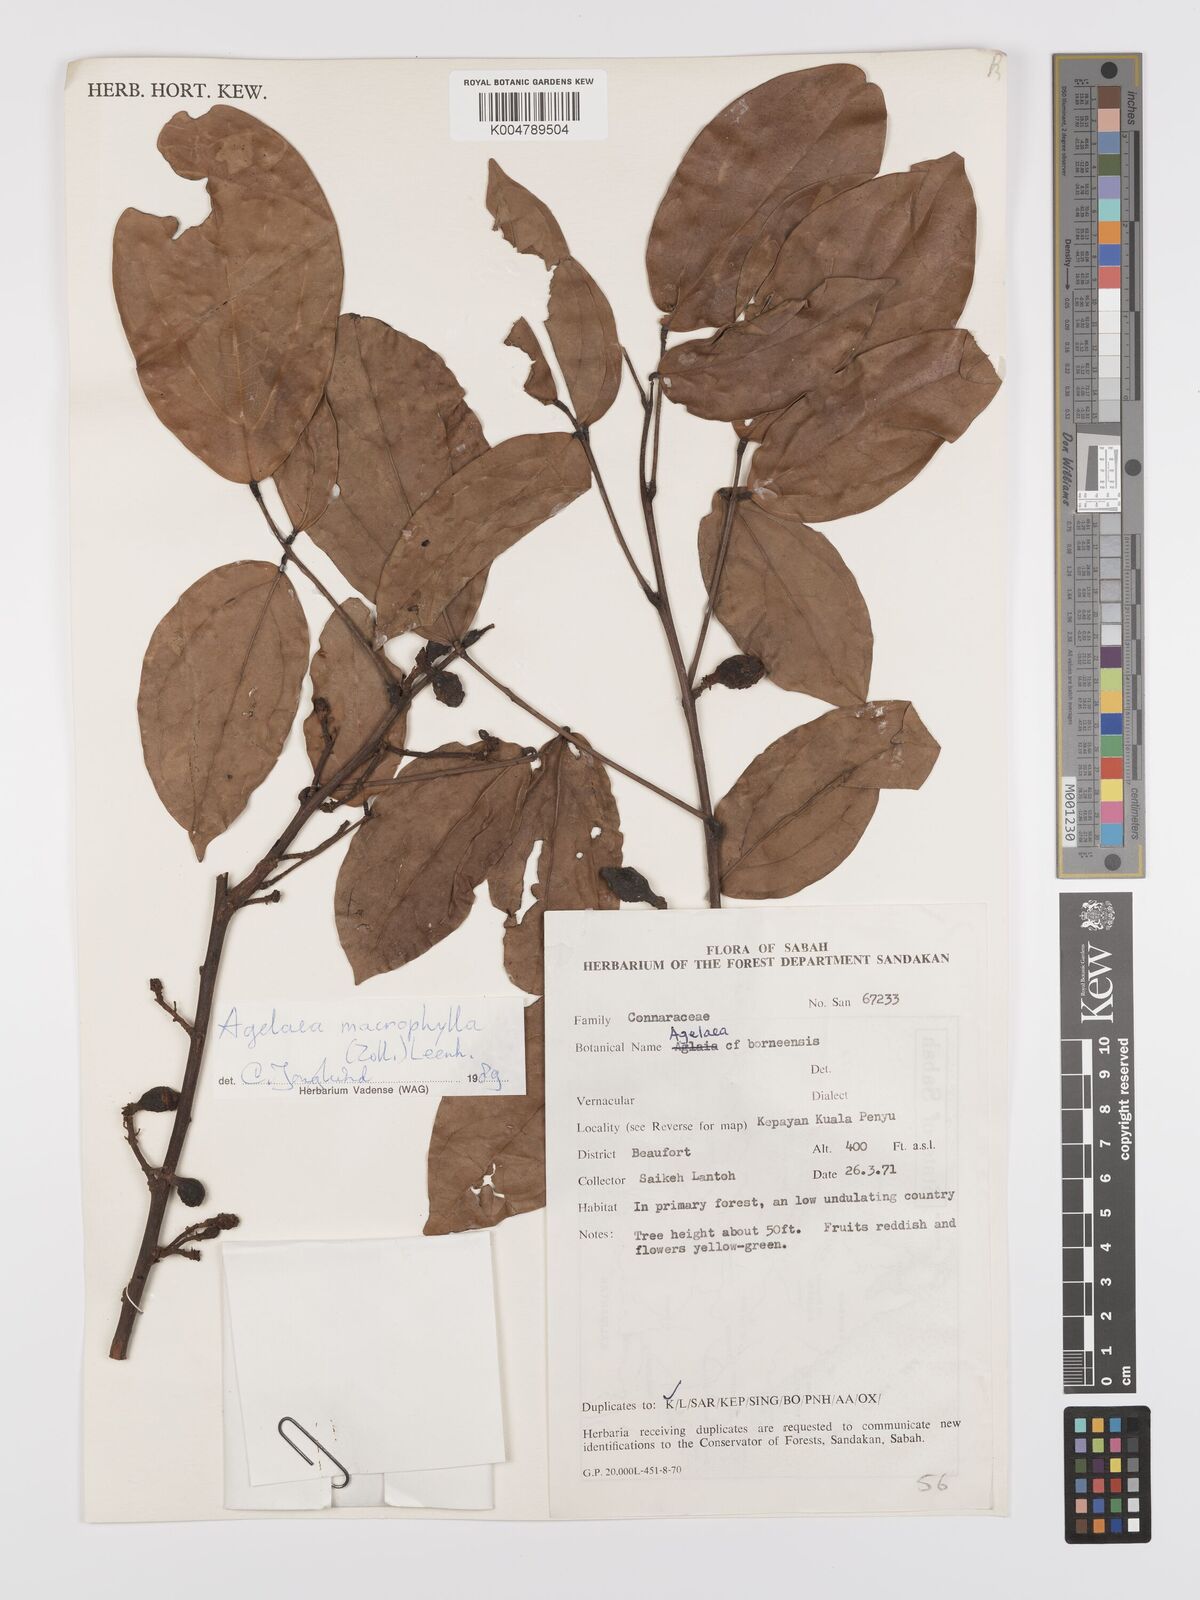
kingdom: Plantae
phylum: Tracheophyta
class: Magnoliopsida
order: Oxalidales
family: Connaraceae
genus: Agelaea
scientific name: Agelaea macrophylla
